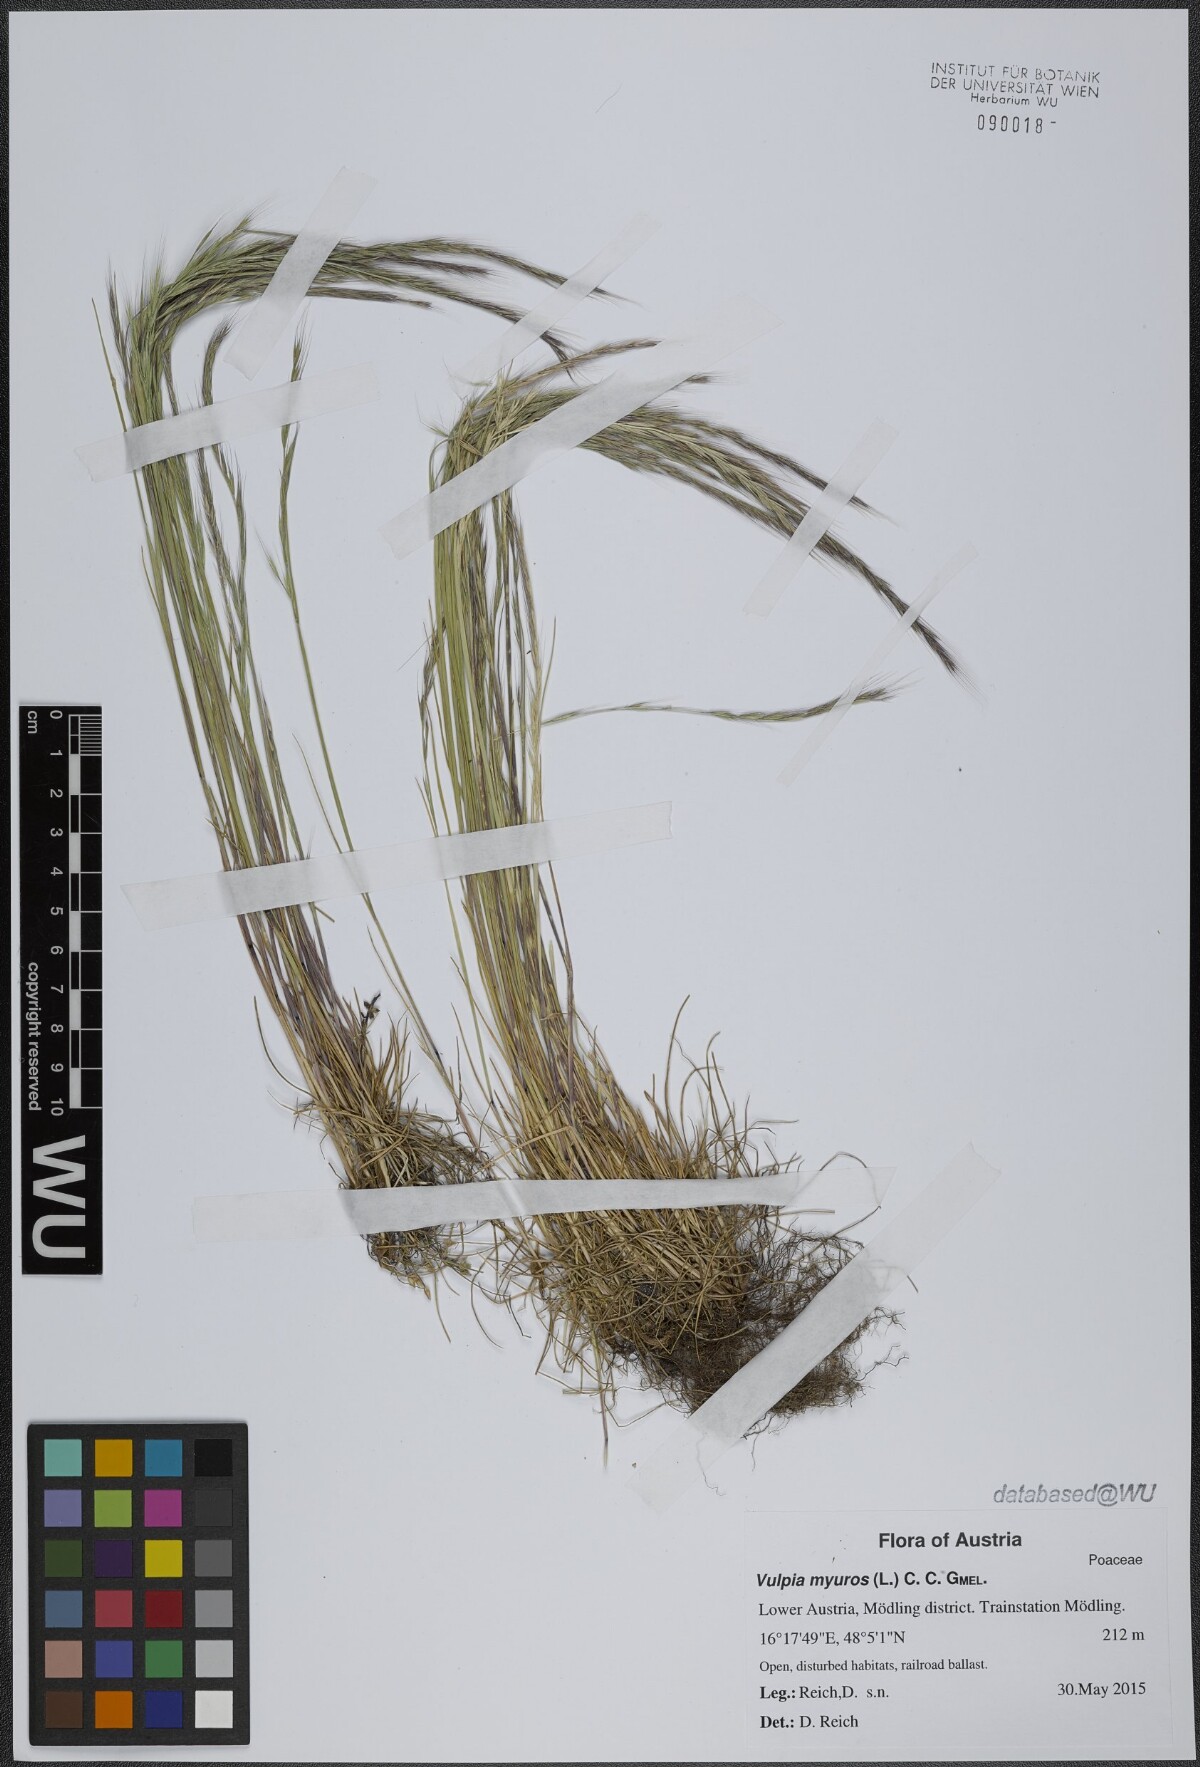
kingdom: Plantae
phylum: Tracheophyta
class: Liliopsida
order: Poales
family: Poaceae
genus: Festuca
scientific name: Festuca myuros
